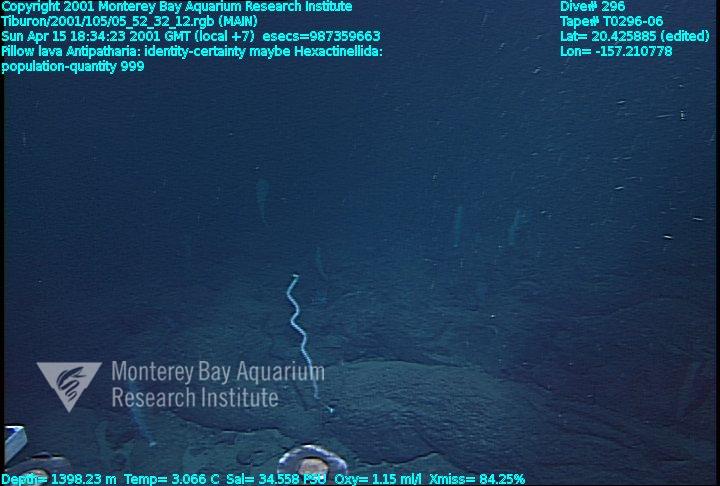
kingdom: Animalia
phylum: Porifera
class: Hexactinellida
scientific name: Hexactinellida
